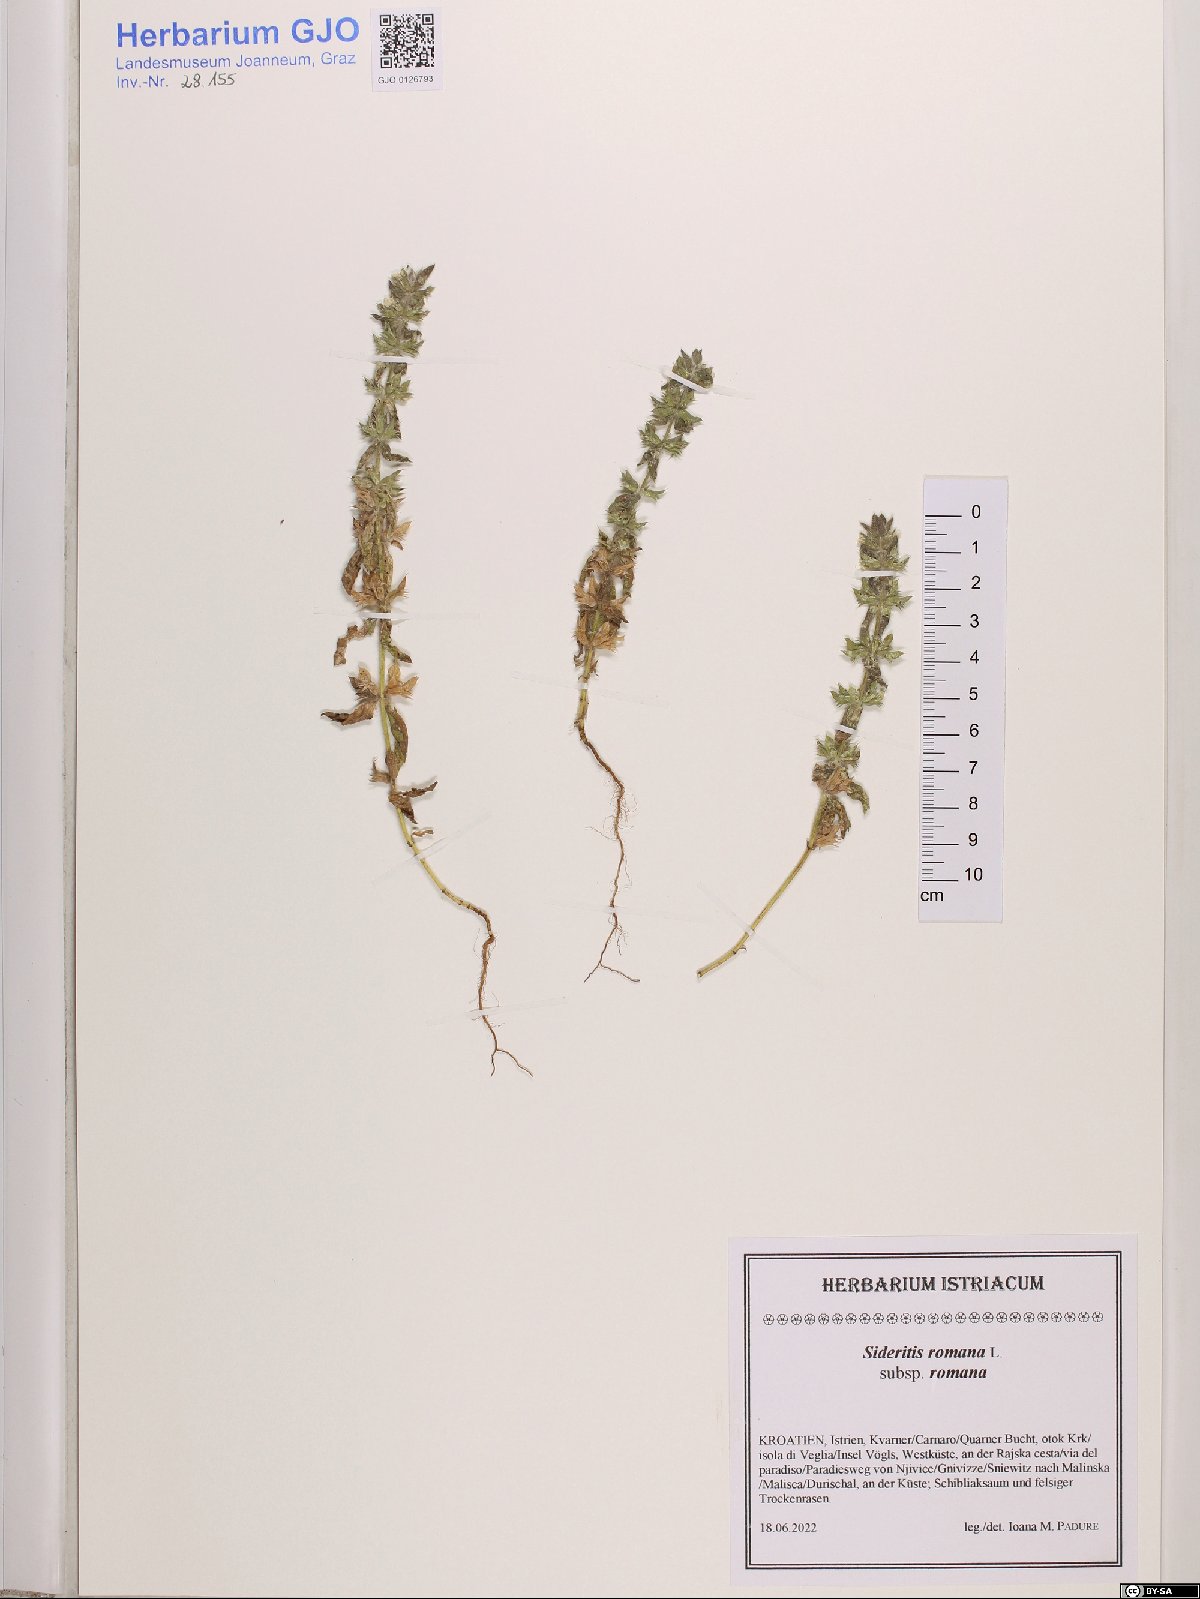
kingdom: Plantae
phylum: Tracheophyta
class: Magnoliopsida
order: Lamiales
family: Lamiaceae
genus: Sideritis
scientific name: Sideritis romana
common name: Simplebeak ironwort
